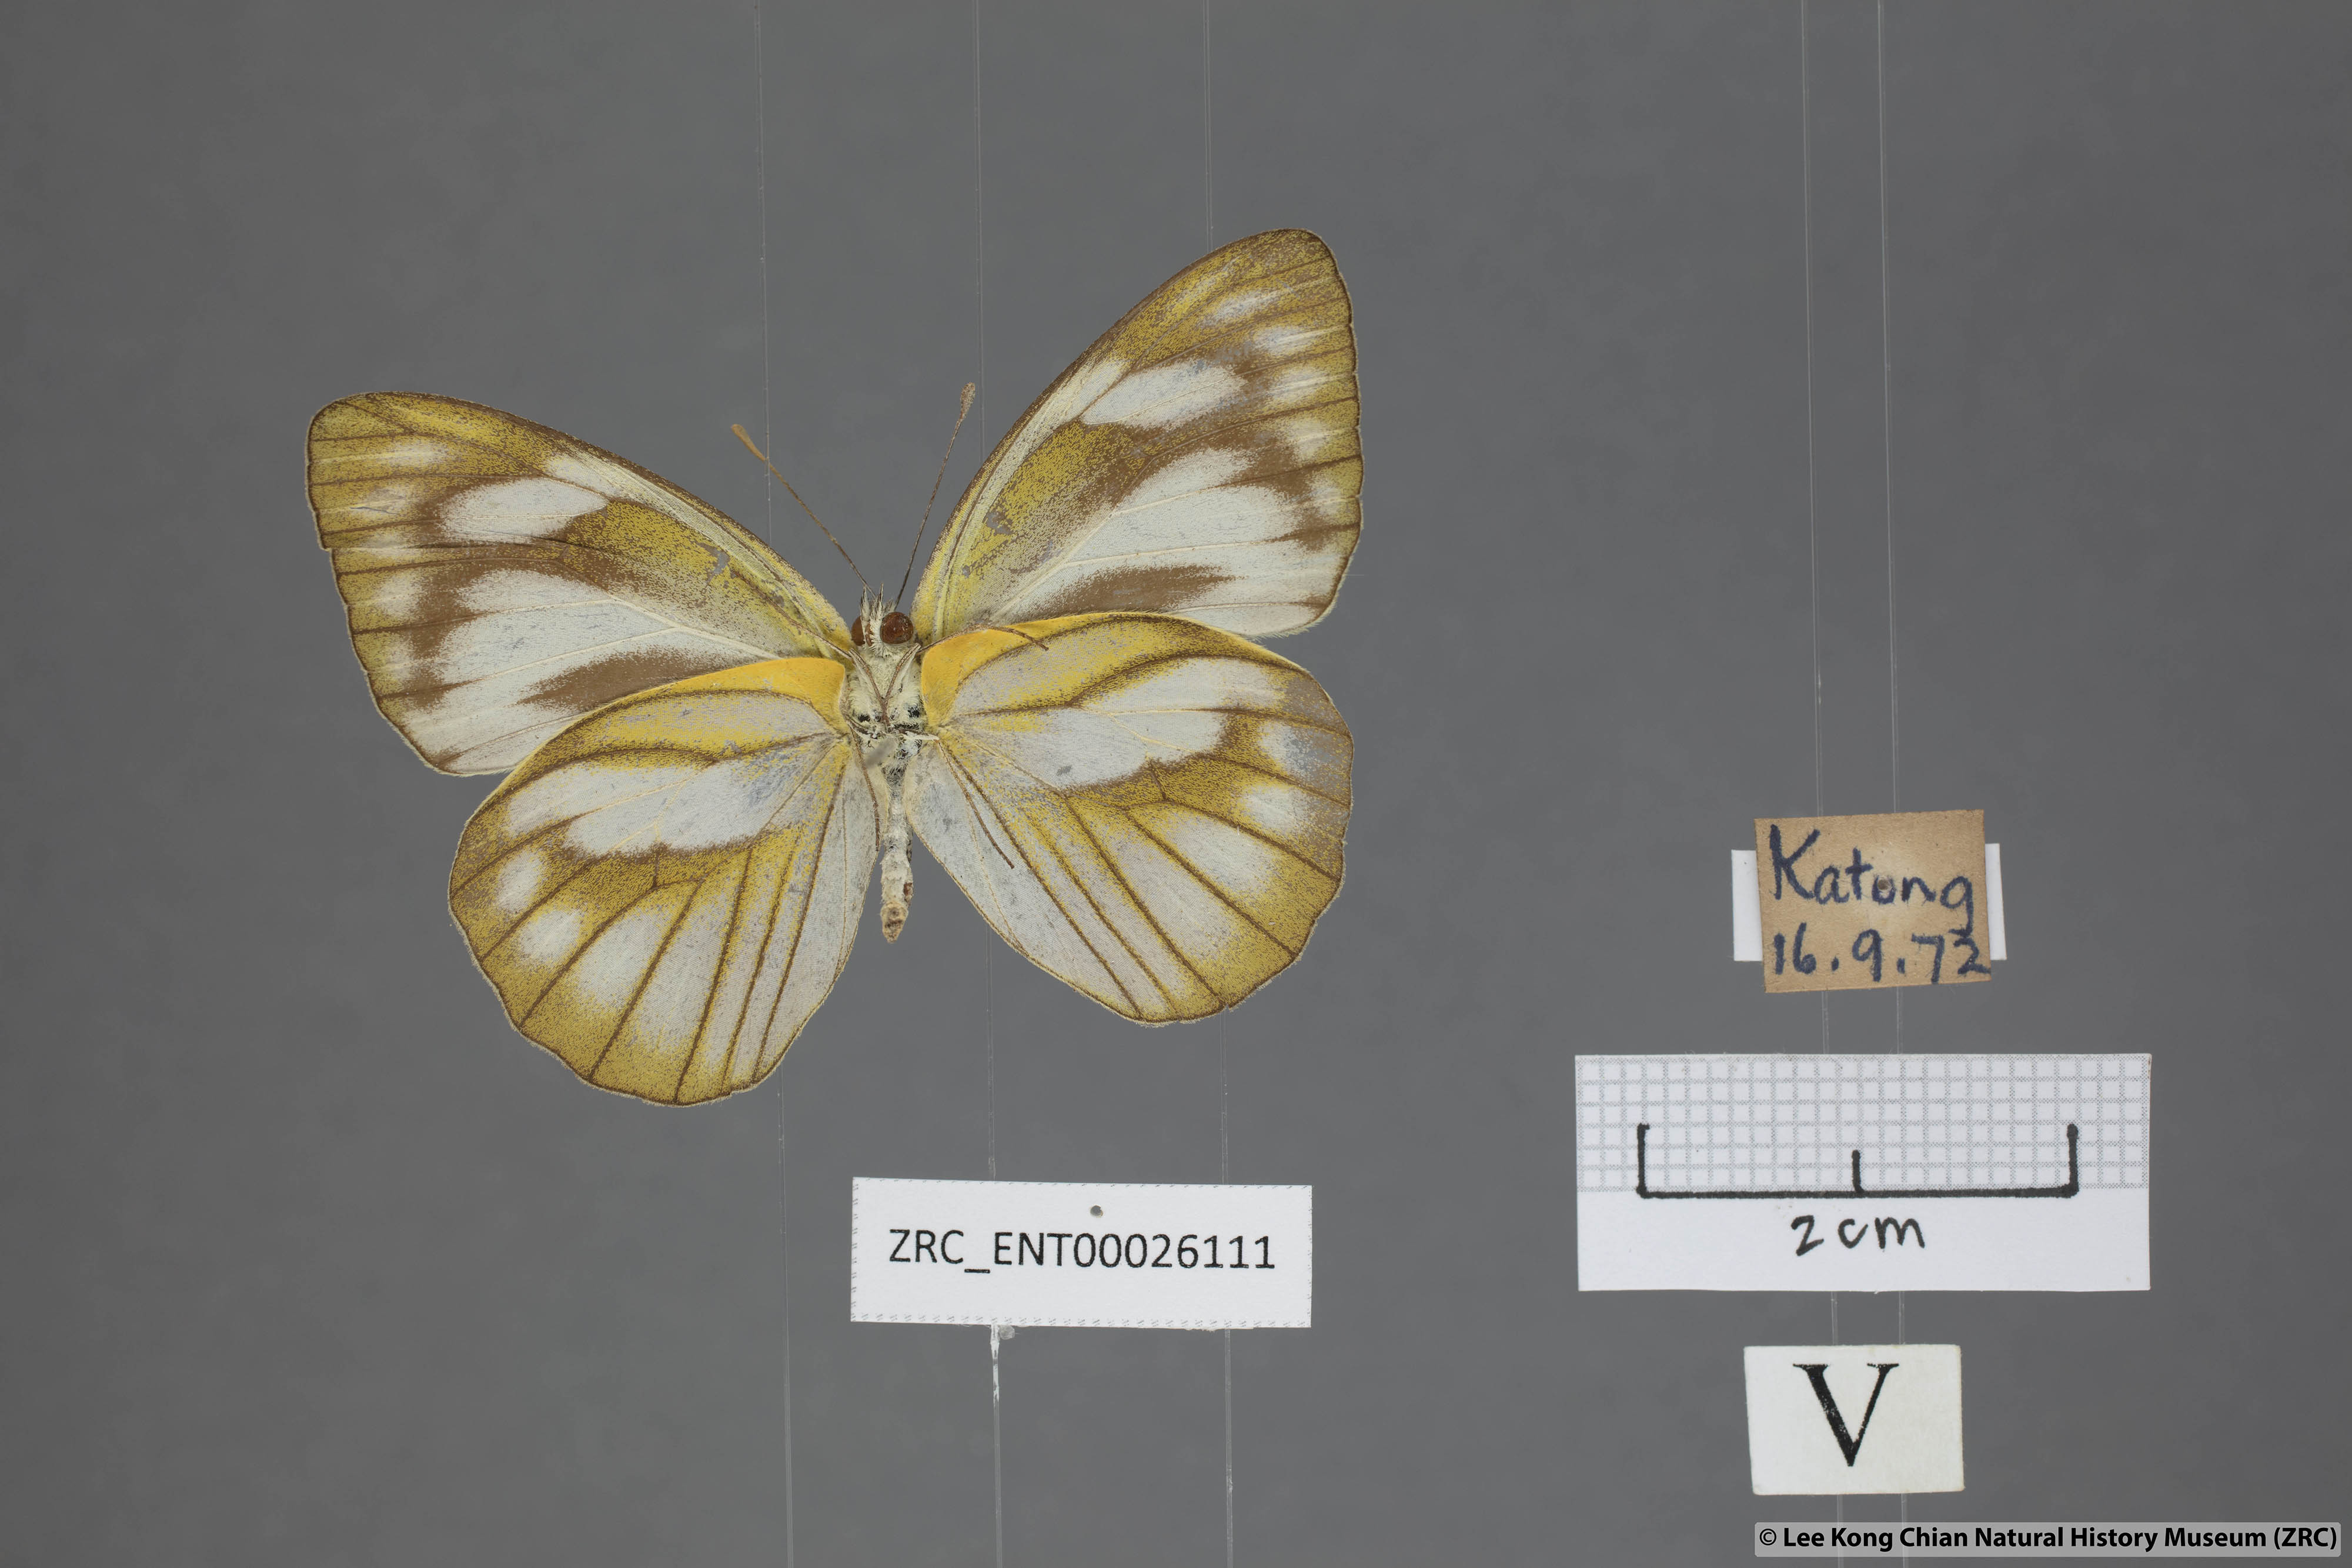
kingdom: Animalia
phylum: Arthropoda
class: Insecta
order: Lepidoptera
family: Pieridae
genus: Appias
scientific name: Appias libythea
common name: Striped albatross
